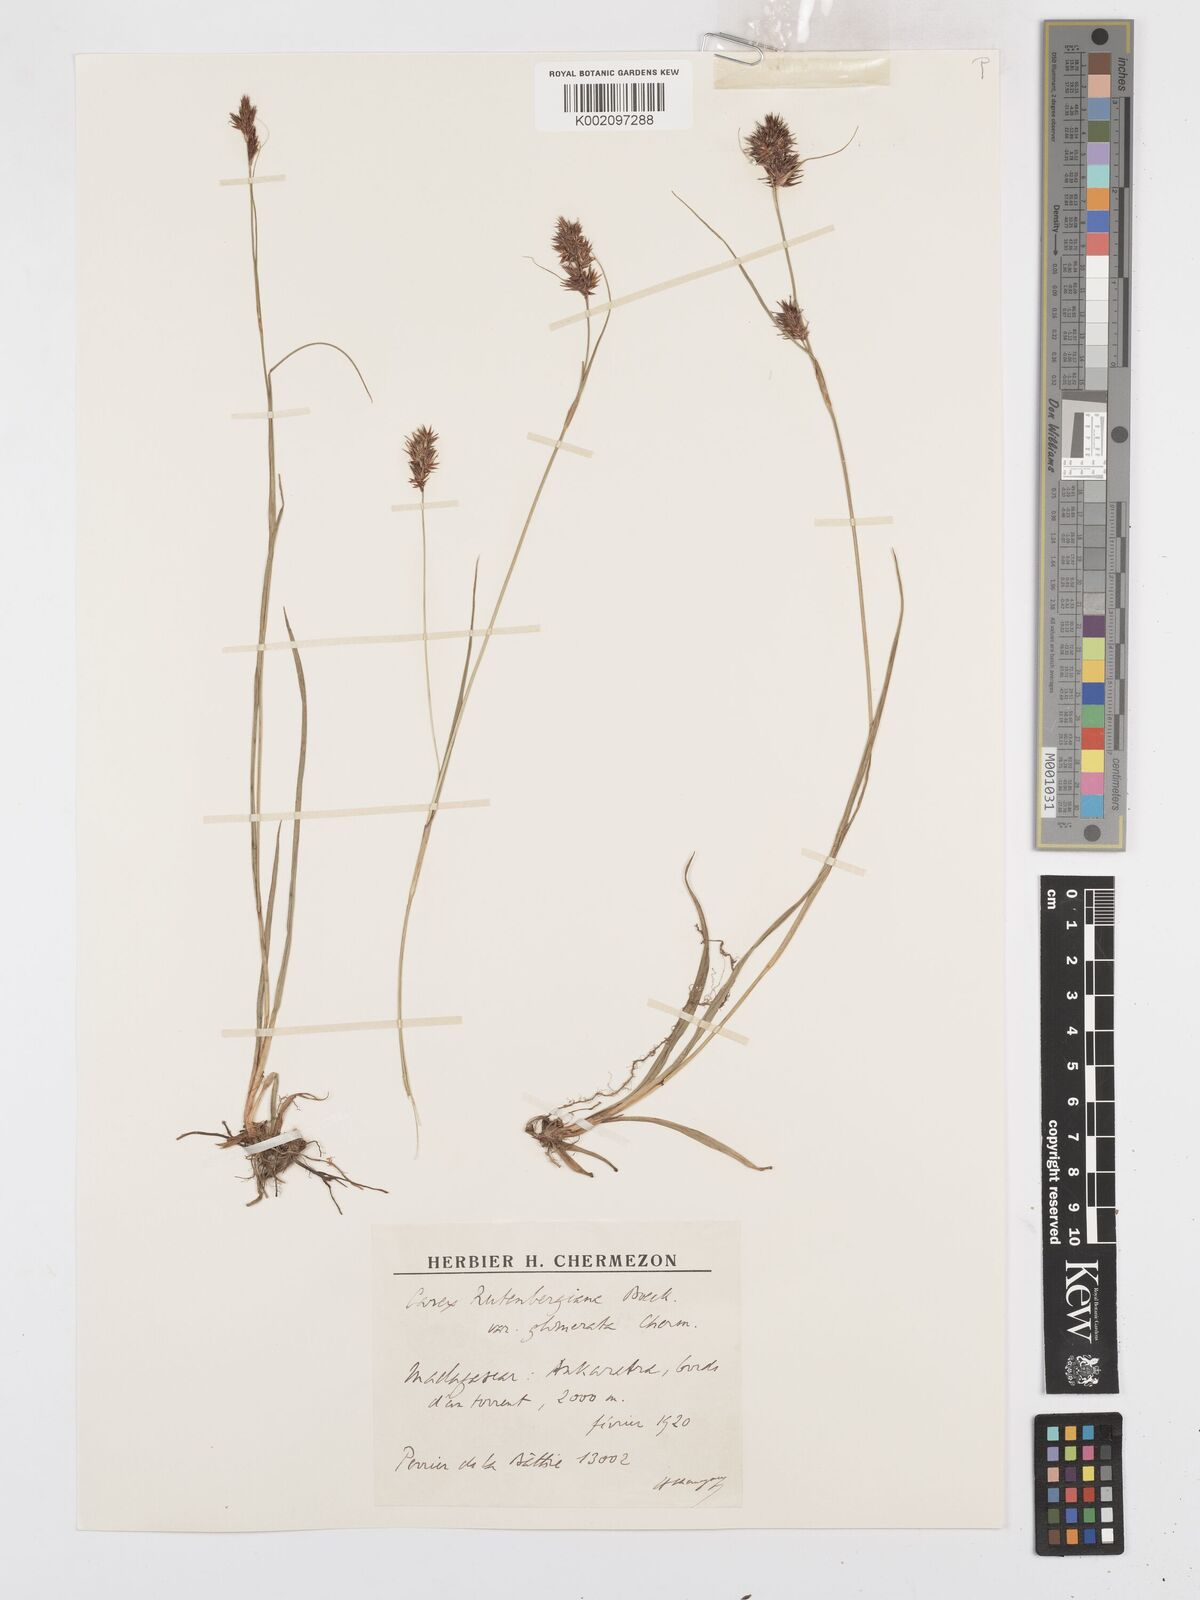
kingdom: Plantae
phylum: Tracheophyta
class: Liliopsida
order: Poales
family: Cyperaceae
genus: Carex
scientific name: Carex rutenbergiana
